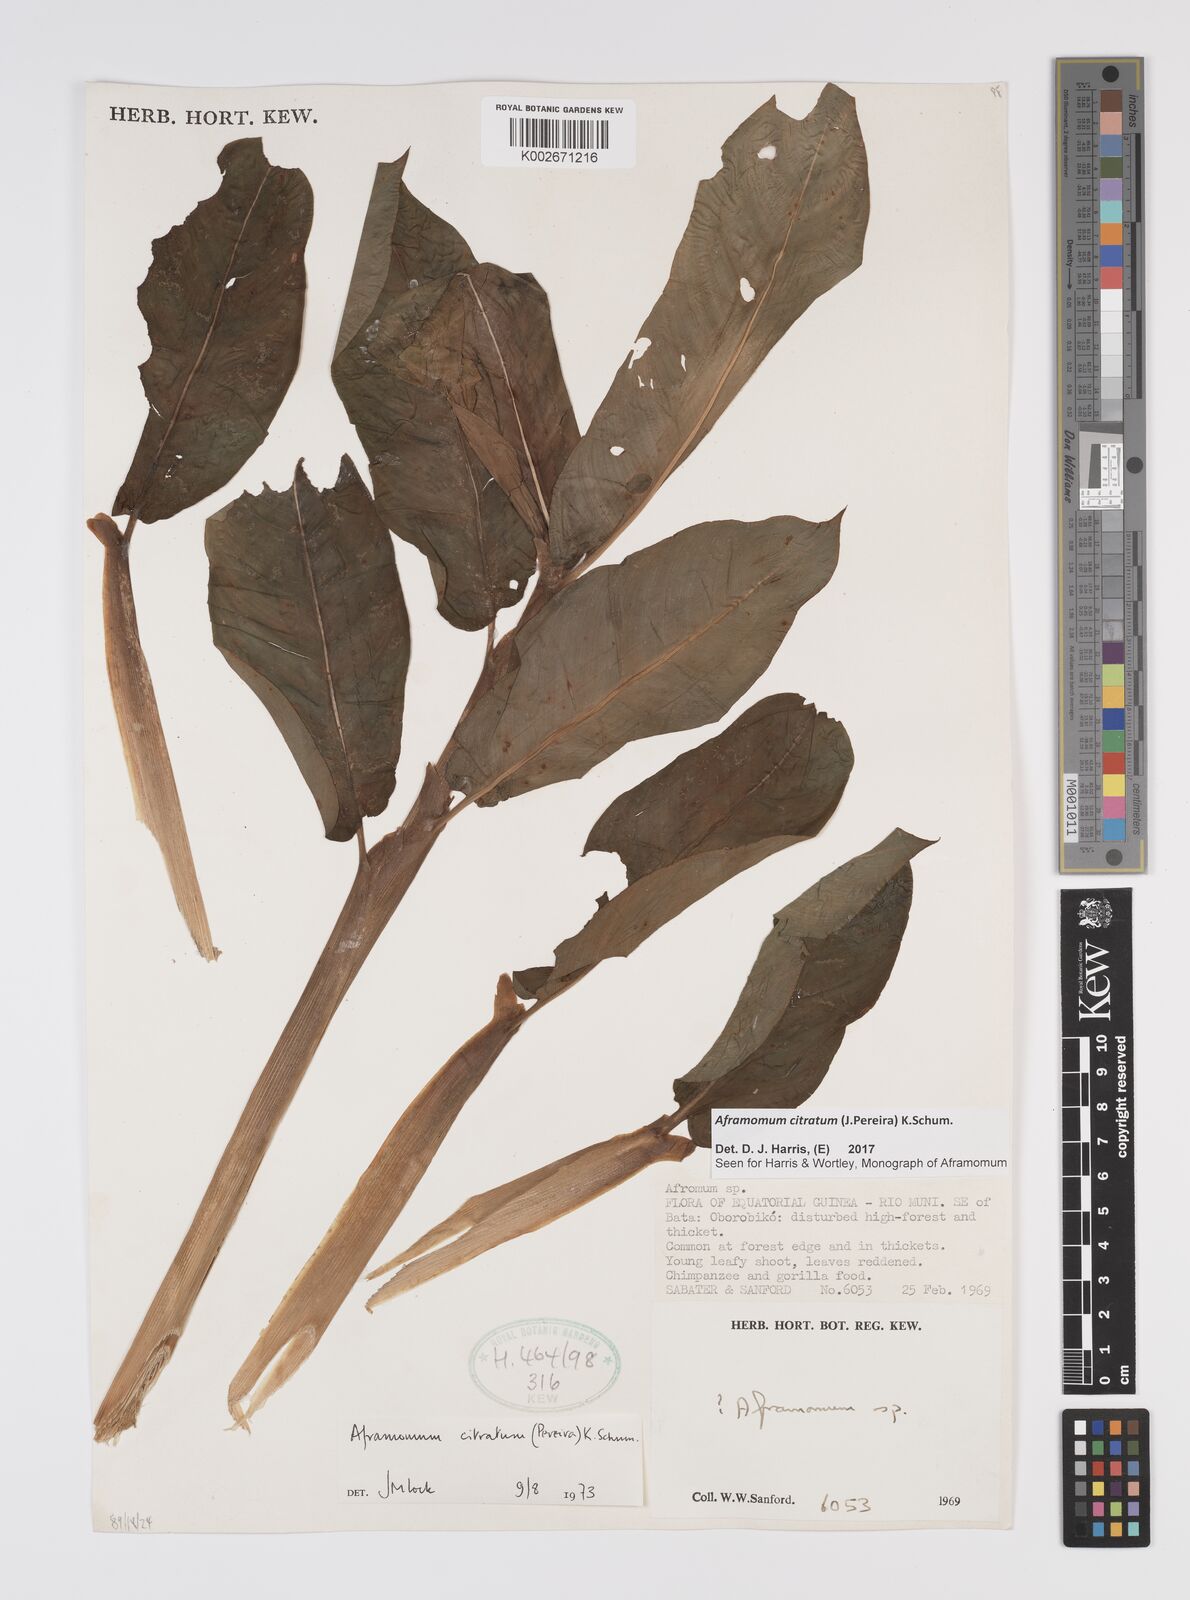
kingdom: Plantae
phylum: Tracheophyta
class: Liliopsida
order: Zingiberales
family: Zingiberaceae
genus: Aframomum
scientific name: Aframomum citratum
